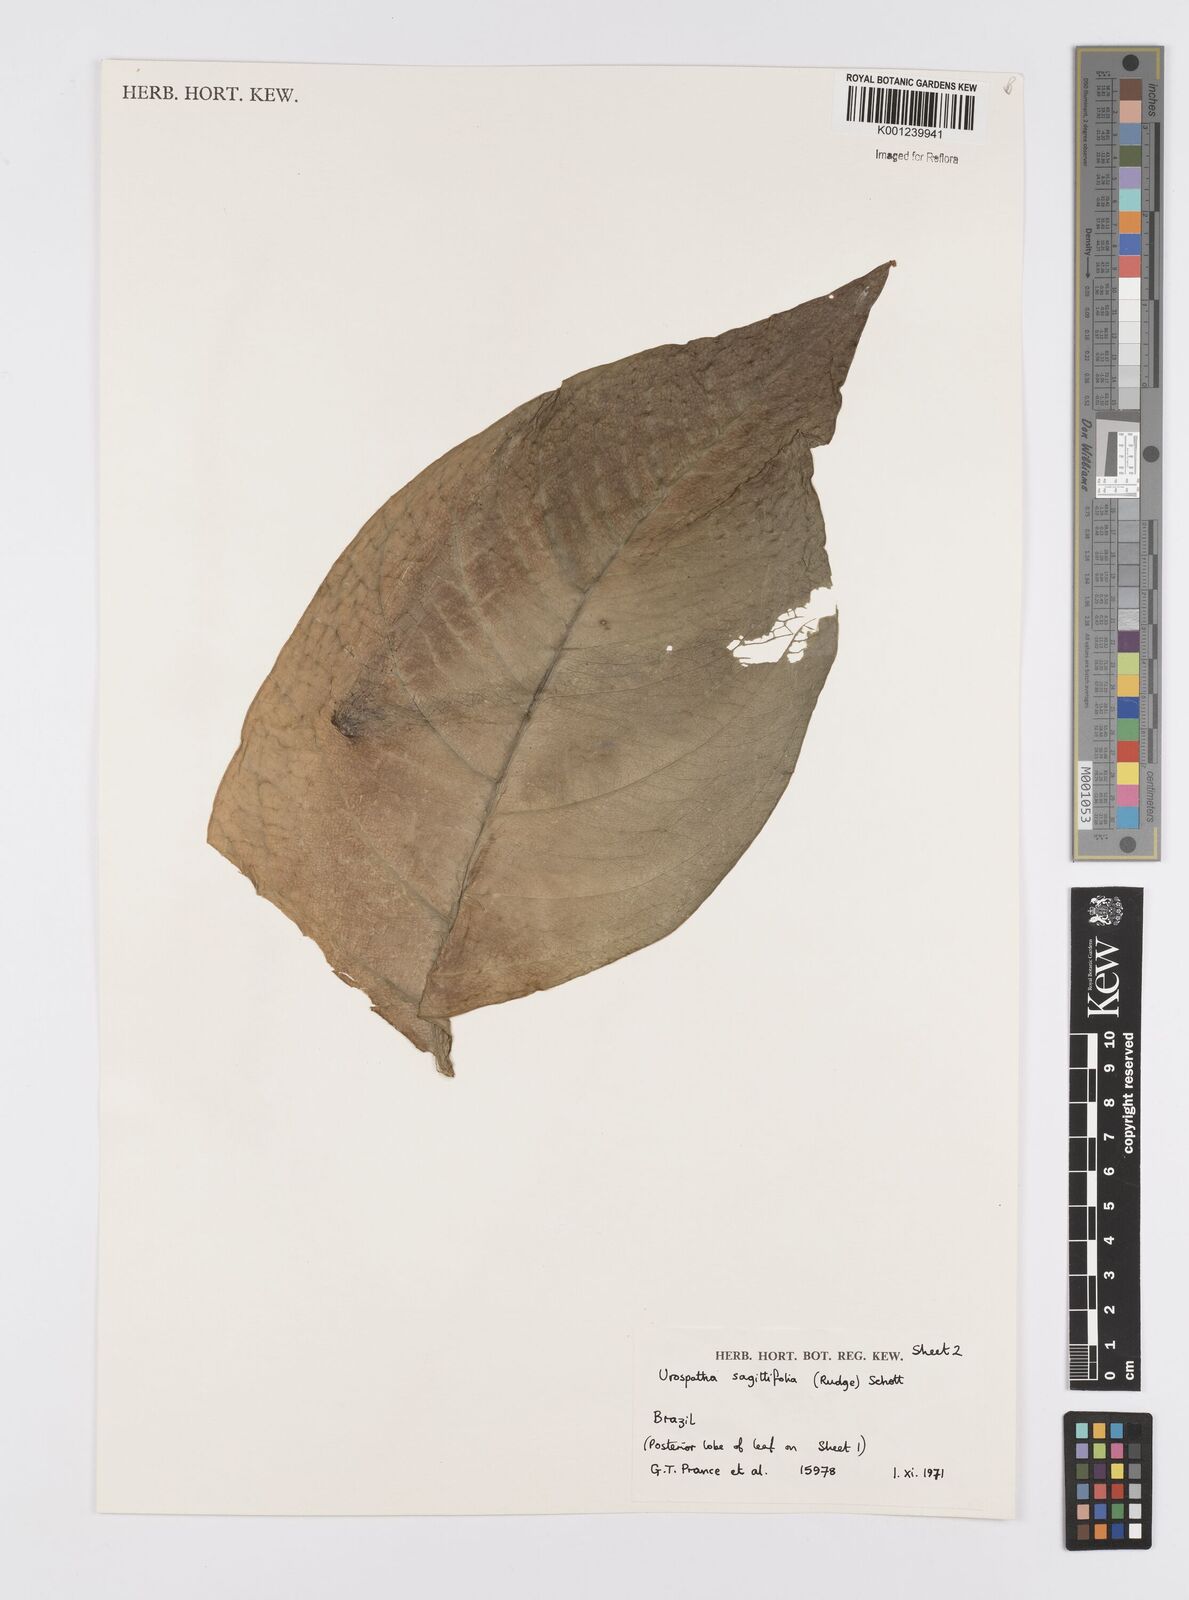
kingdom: Plantae
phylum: Tracheophyta
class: Liliopsida
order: Alismatales
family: Araceae
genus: Urospatha
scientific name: Urospatha sagittifolia
